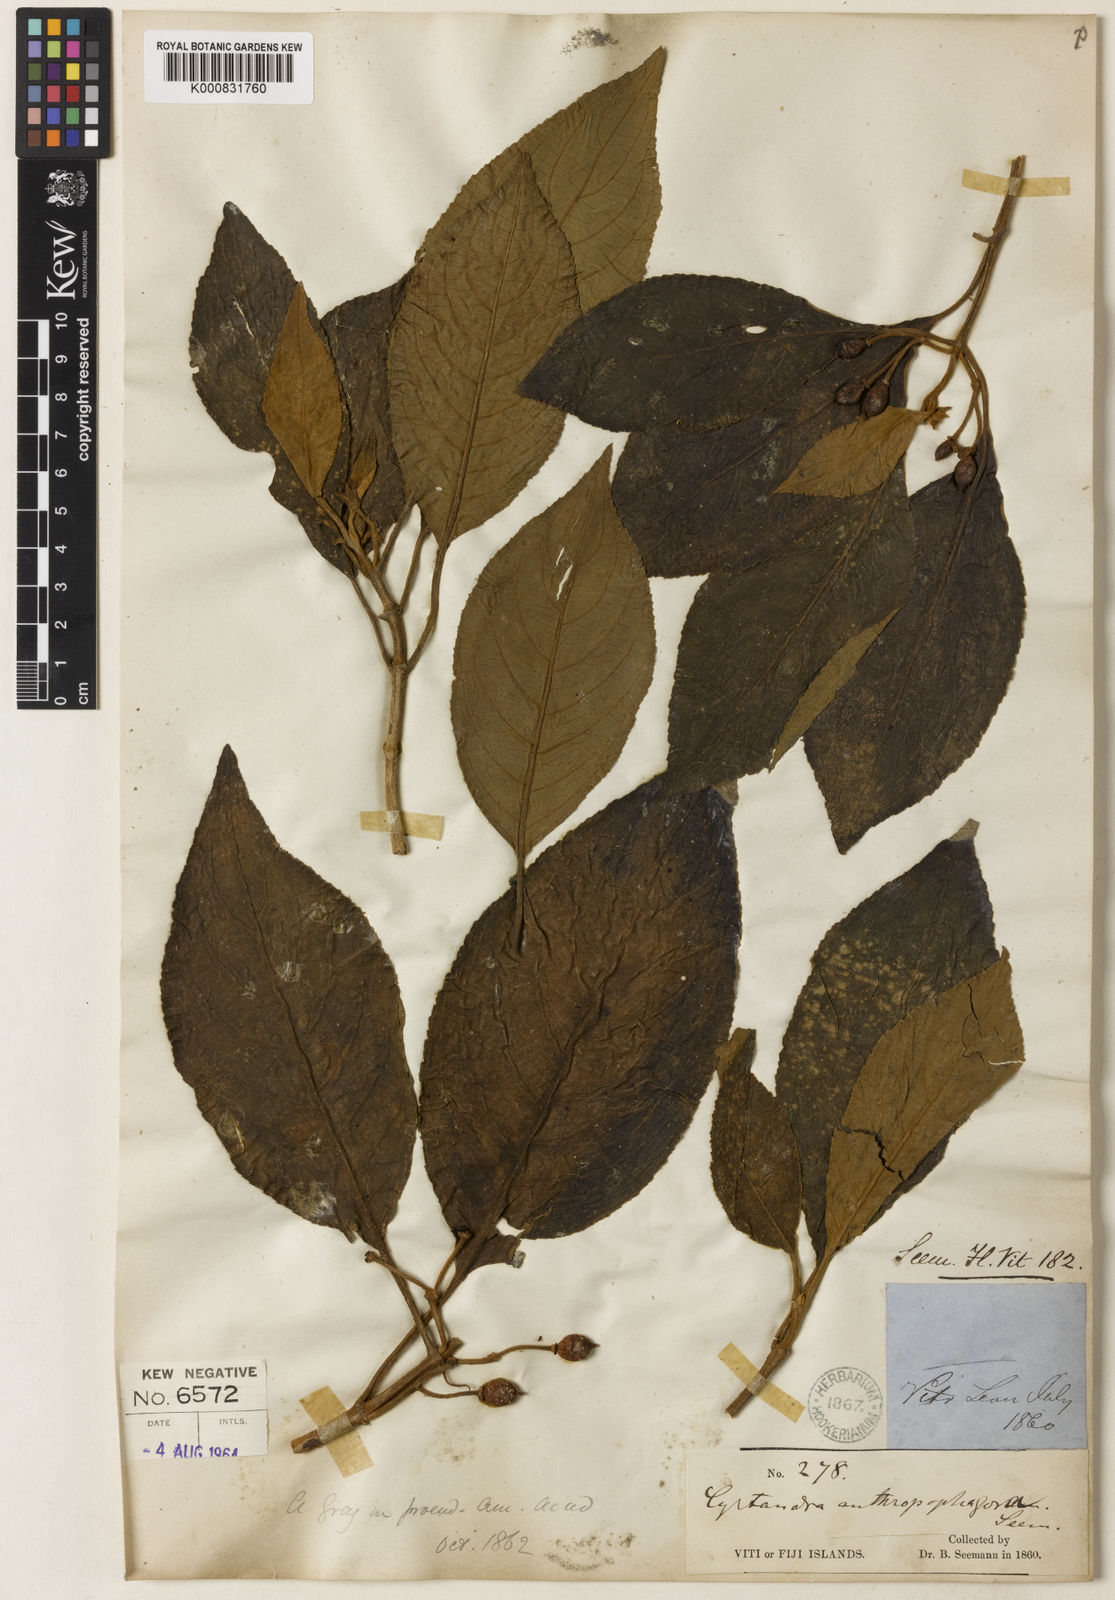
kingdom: Plantae
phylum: Tracheophyta
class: Magnoliopsida
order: Lamiales
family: Gesneriaceae
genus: Cyrtandra
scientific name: Cyrtandra
